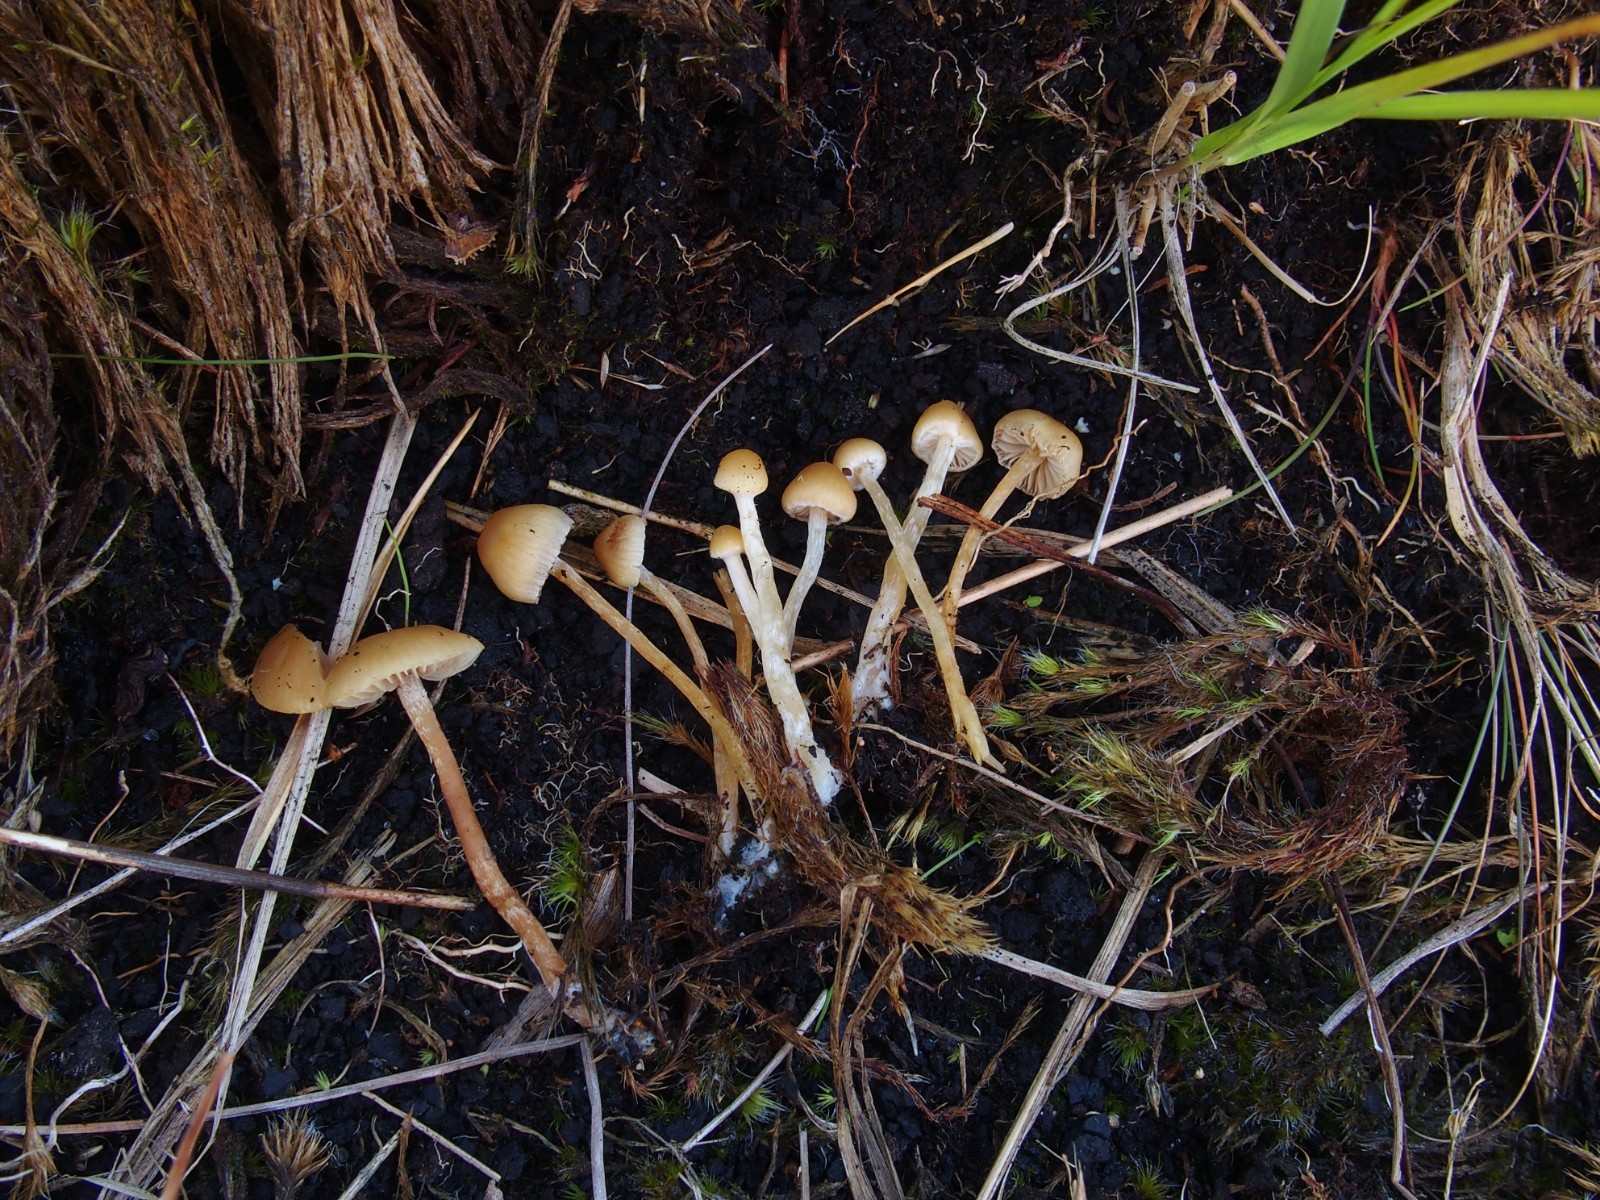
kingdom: Fungi
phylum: Basidiomycota
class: Agaricomycetes
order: Agaricales
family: Strophariaceae
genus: Hypholoma
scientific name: Hypholoma elongatum
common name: slank svovlhat
